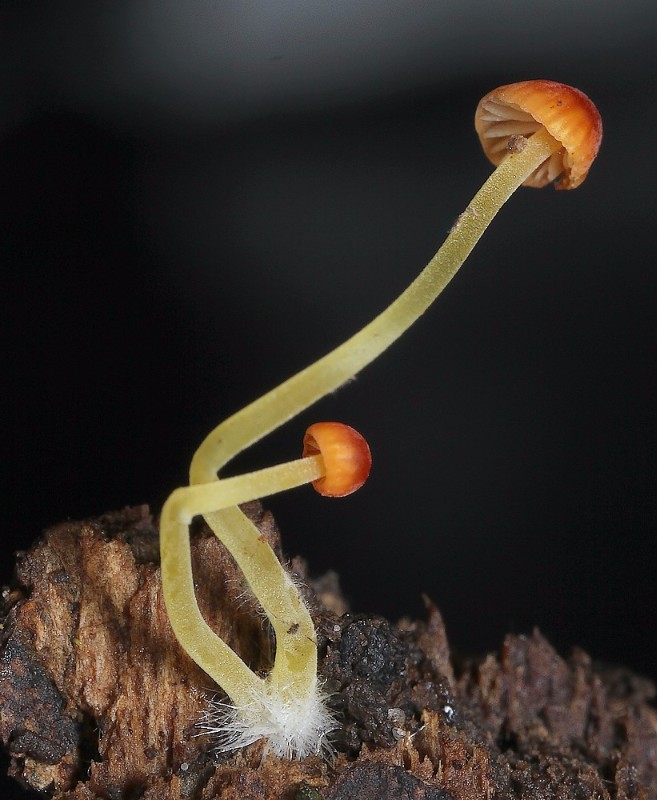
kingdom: Fungi
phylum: Basidiomycota
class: Agaricomycetes
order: Agaricales
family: Mycenaceae
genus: Mycena
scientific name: Mycena acicula
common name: orange huesvamp
